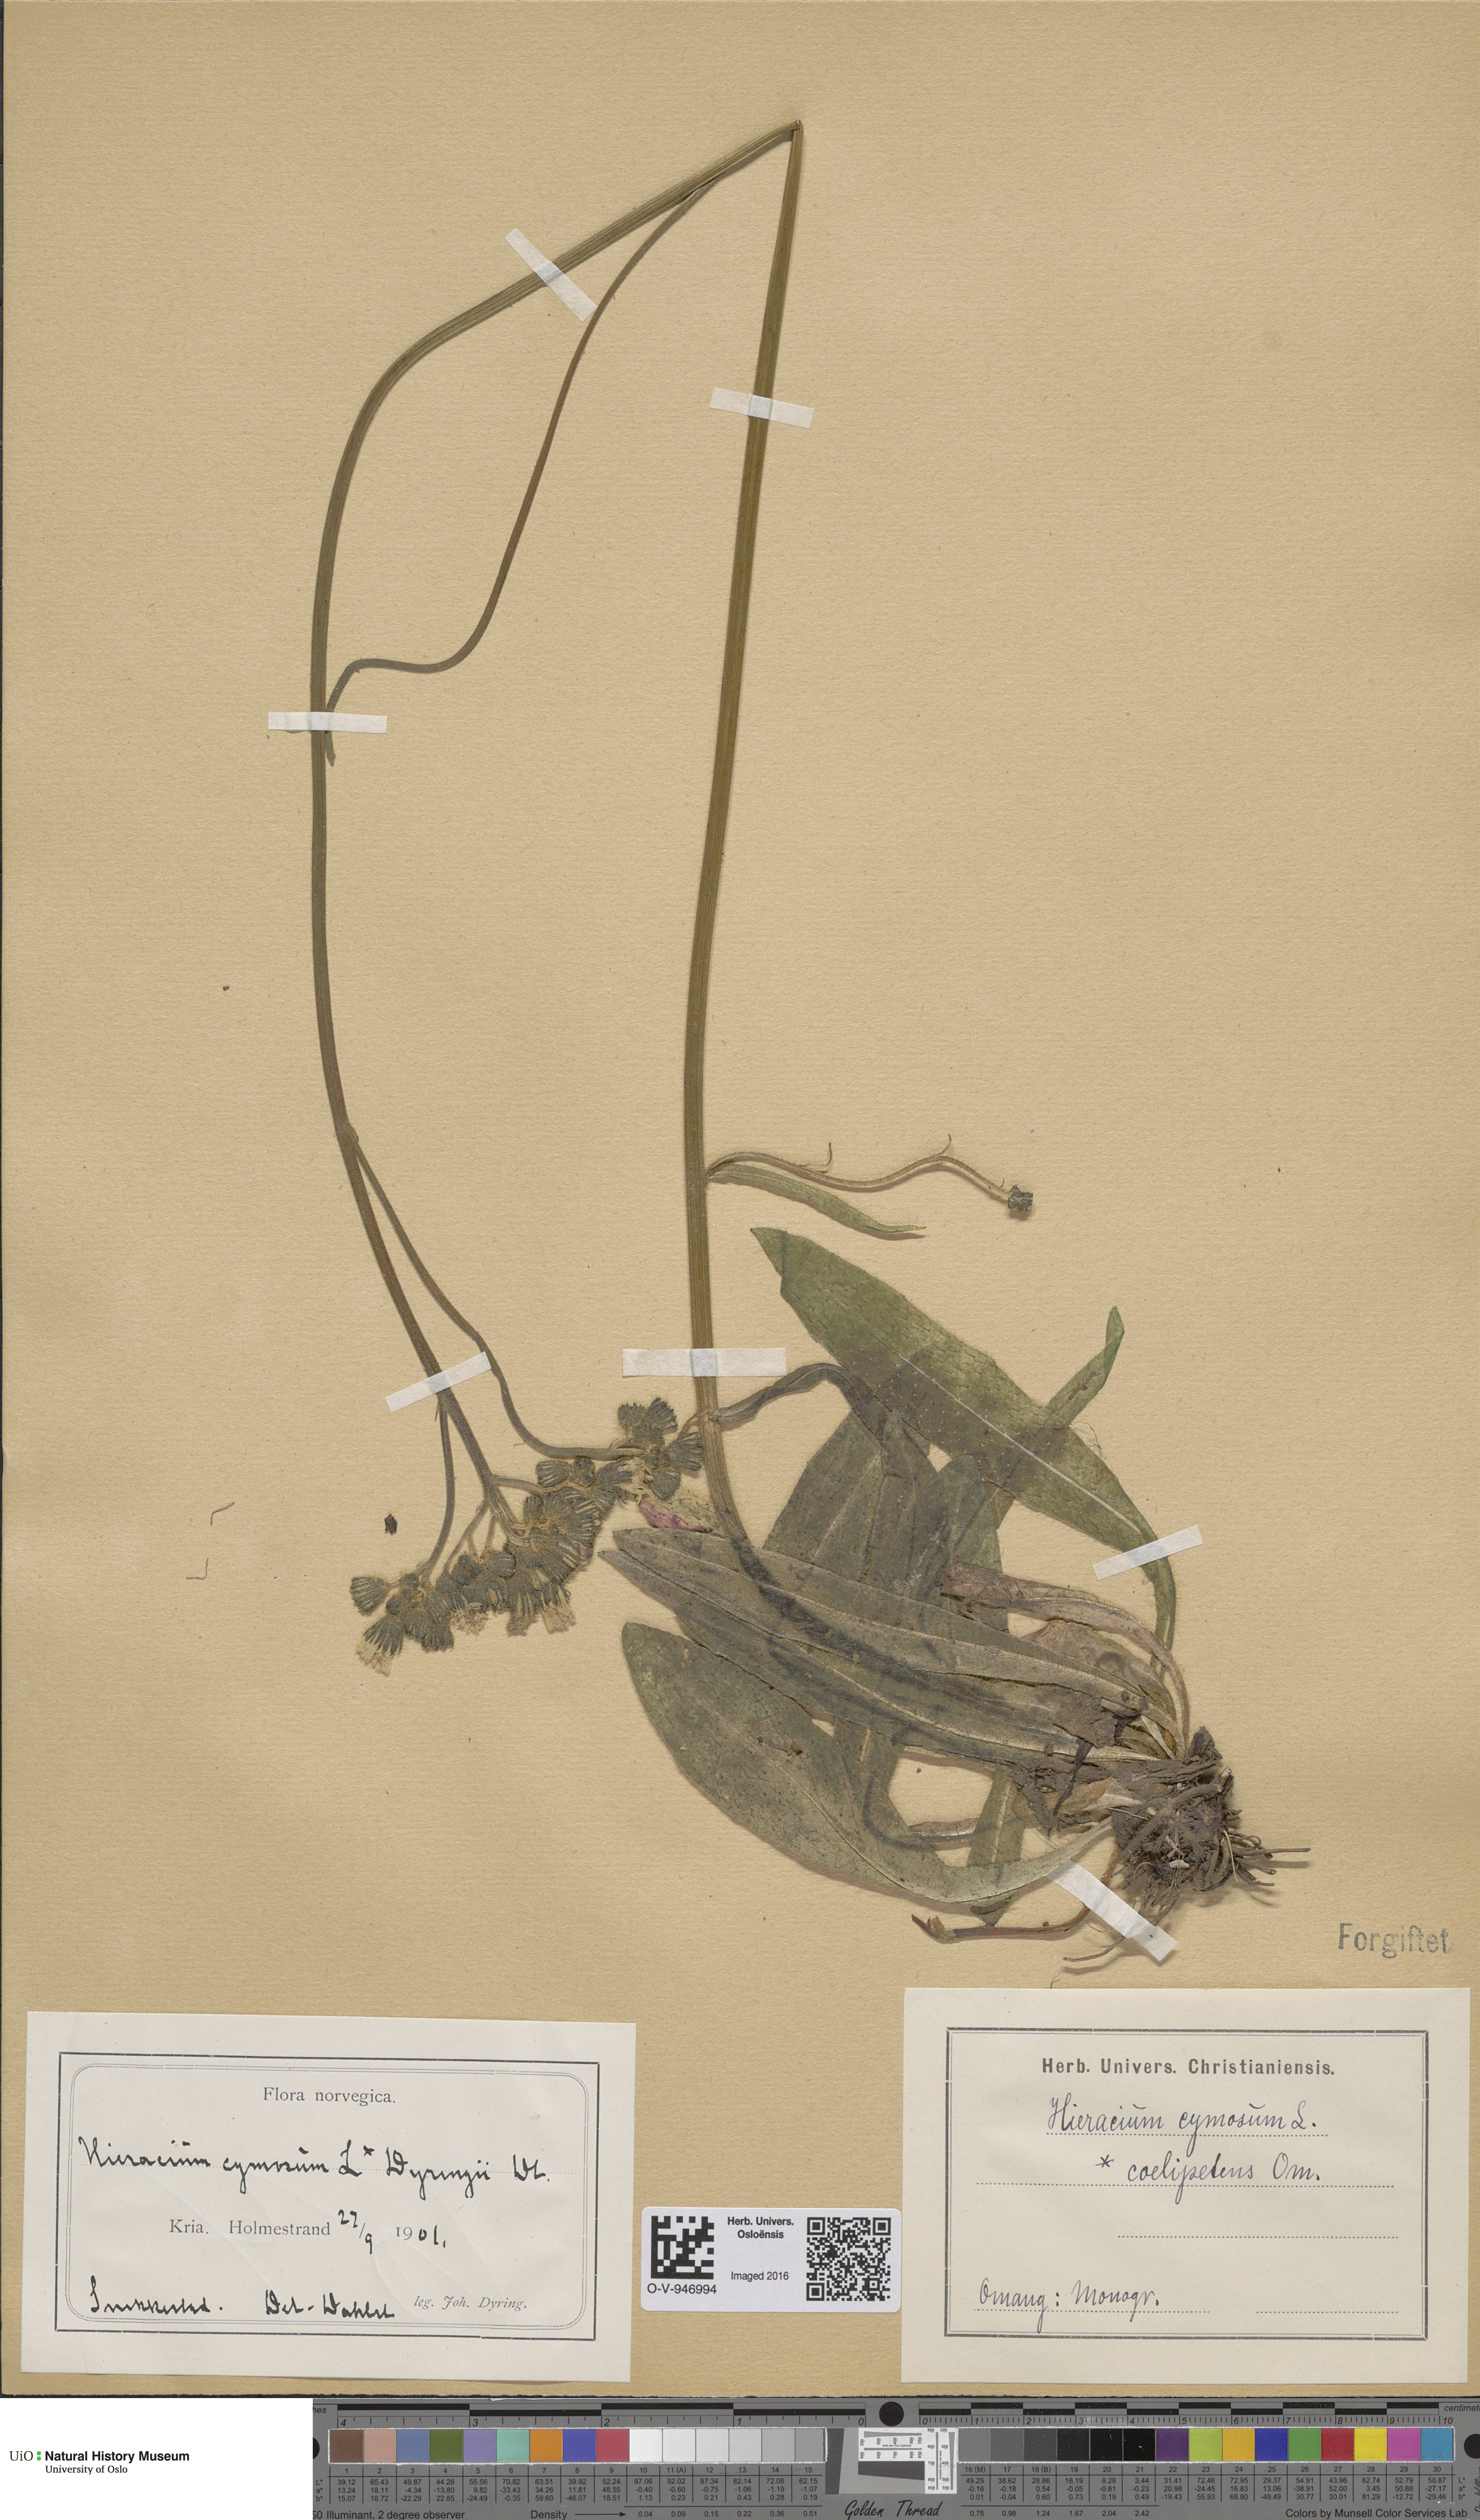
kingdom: Plantae
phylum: Tracheophyta
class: Magnoliopsida
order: Asterales
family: Asteraceae
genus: Pilosella
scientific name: Pilosella cymosa
